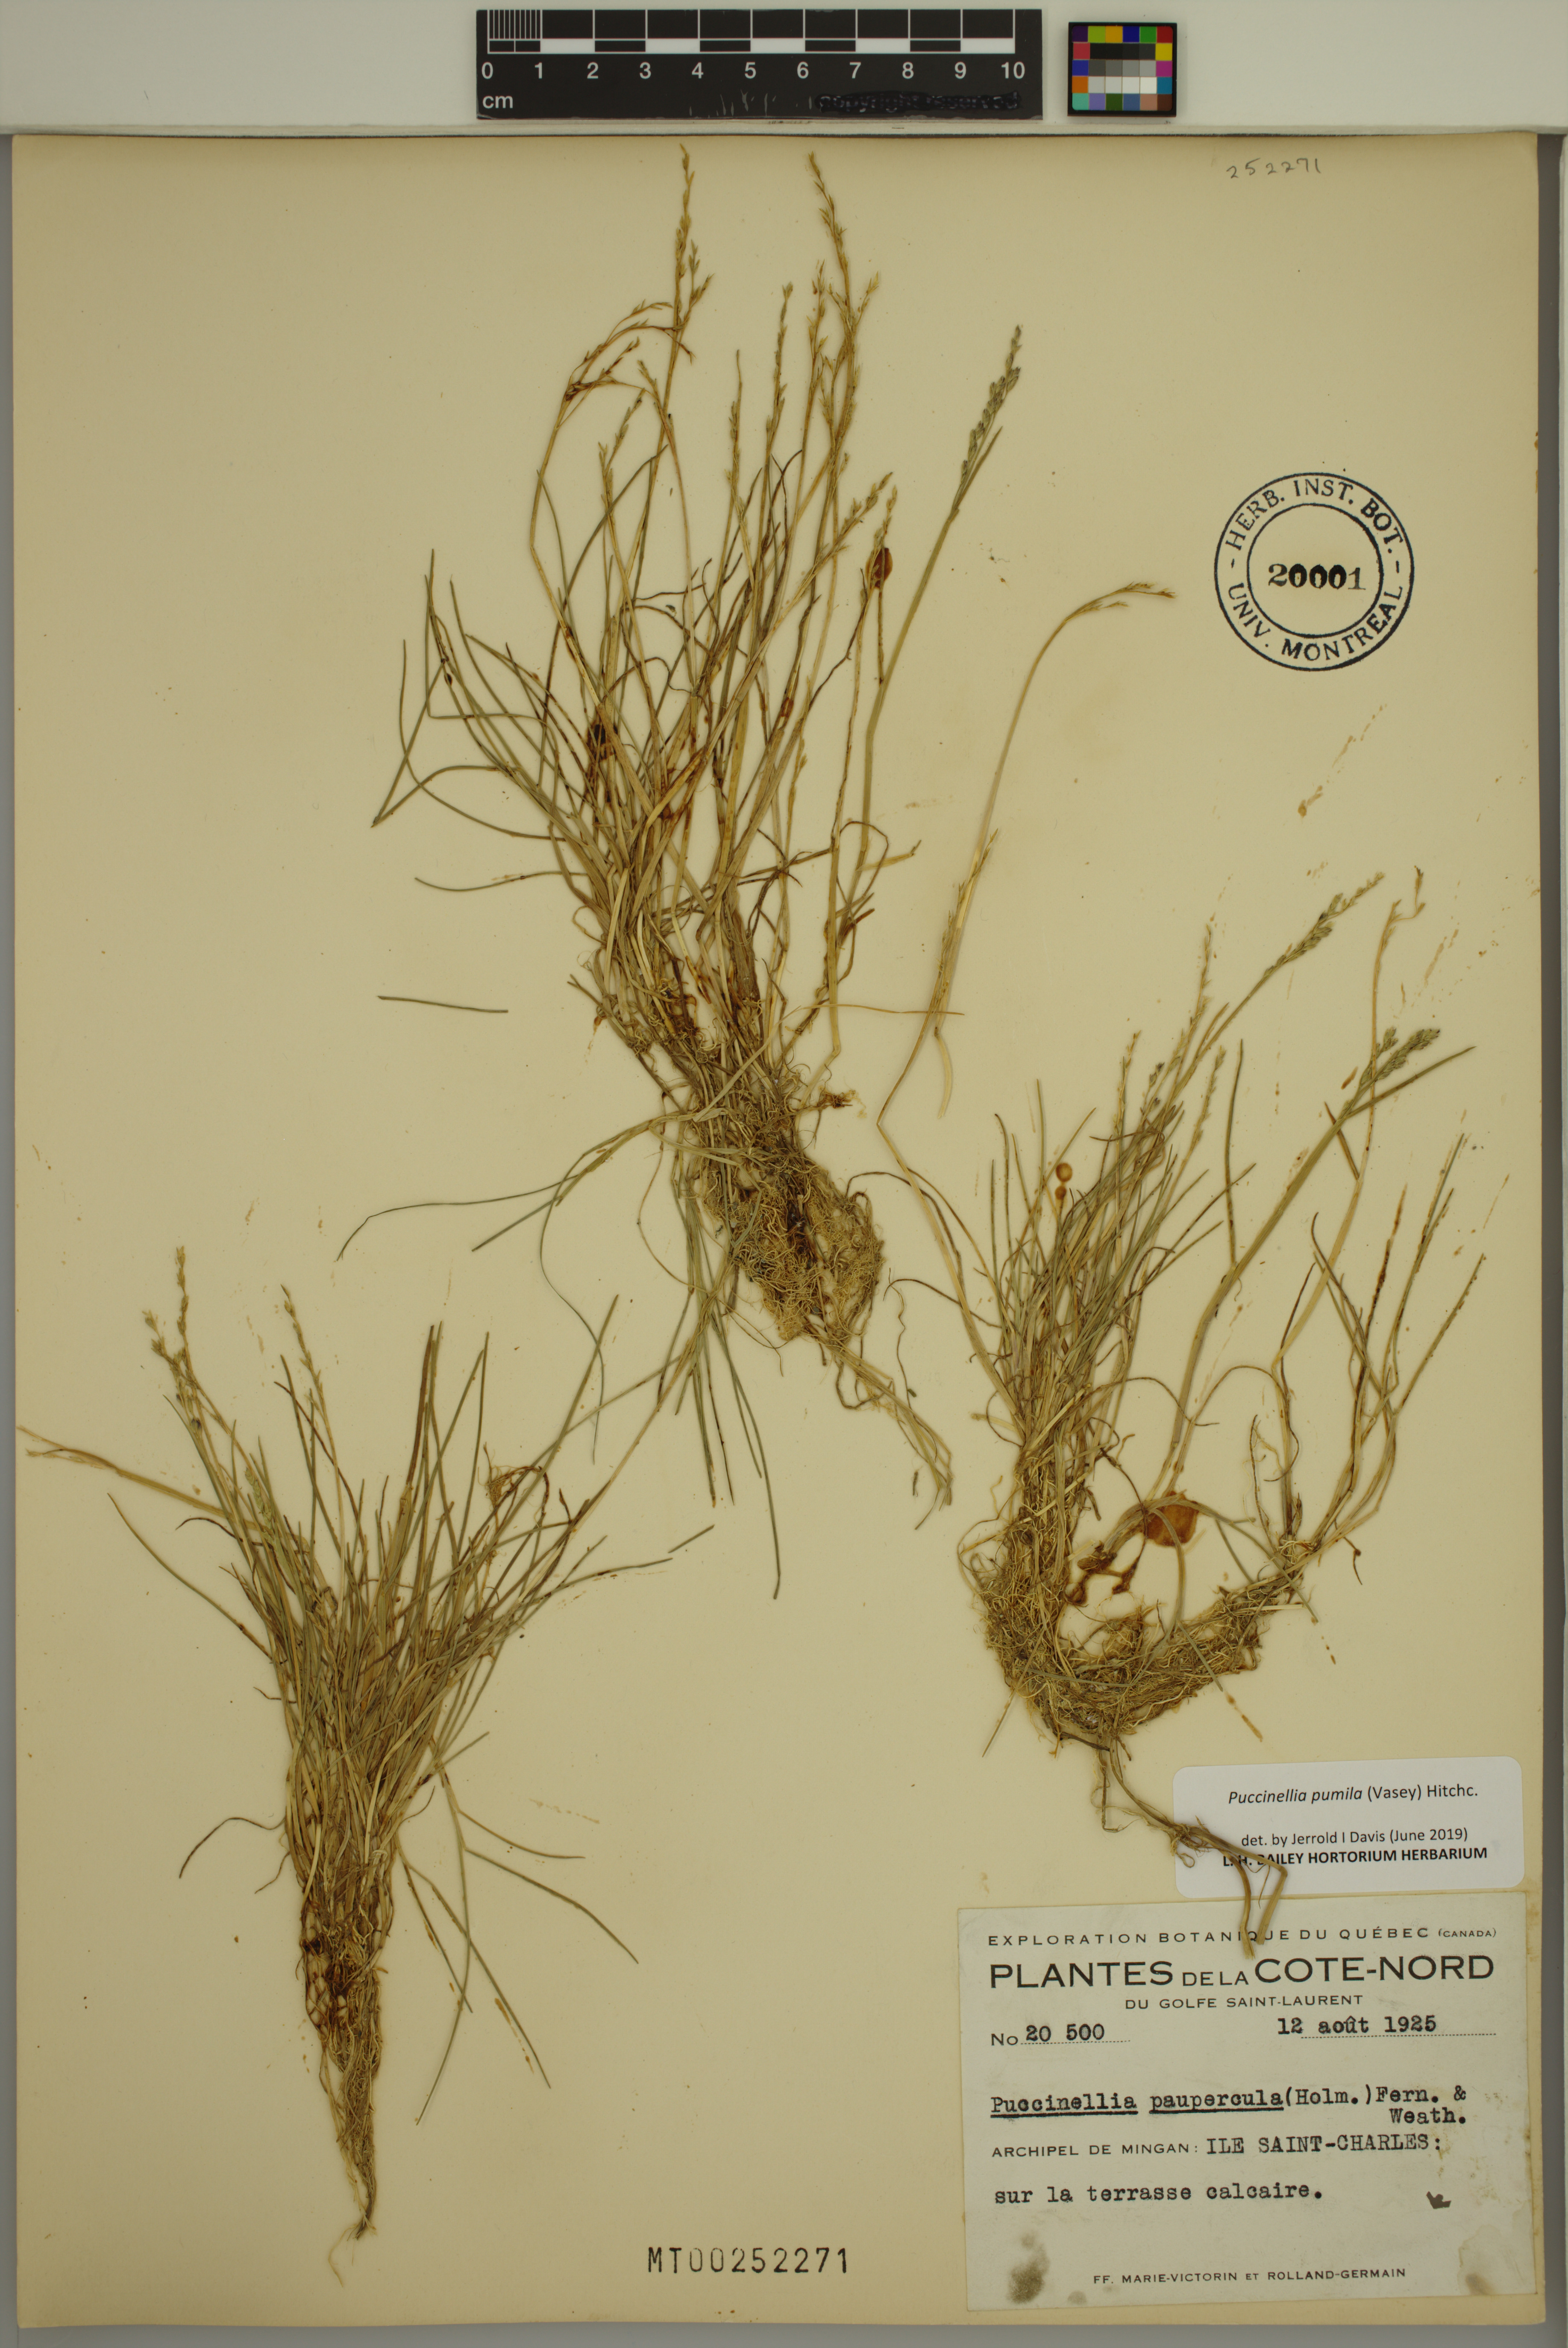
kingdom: Plantae
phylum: Tracheophyta
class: Liliopsida
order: Poales
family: Poaceae
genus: Puccinellia
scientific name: Puccinellia pumila
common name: Dwarf alkaligrass
